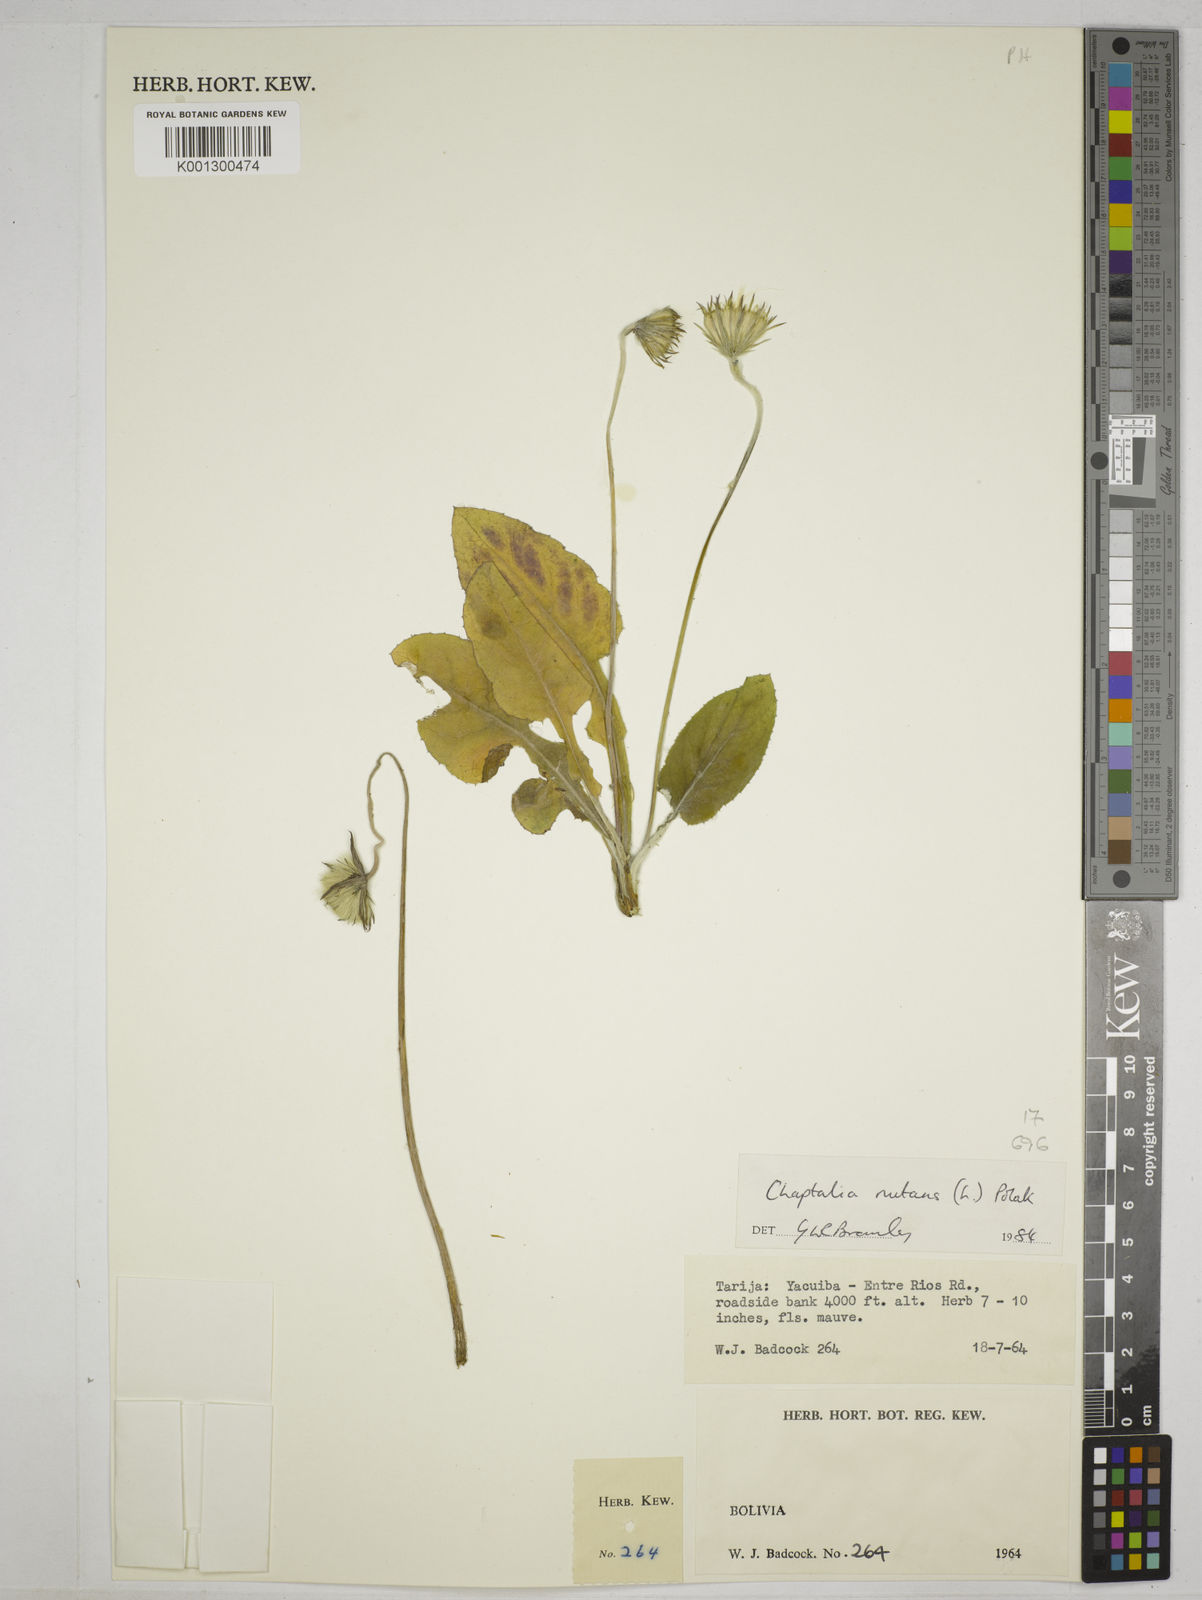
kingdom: Plantae
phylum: Tracheophyta
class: Magnoliopsida
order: Asterales
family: Asteraceae
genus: Chaptalia
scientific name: Chaptalia nutans
